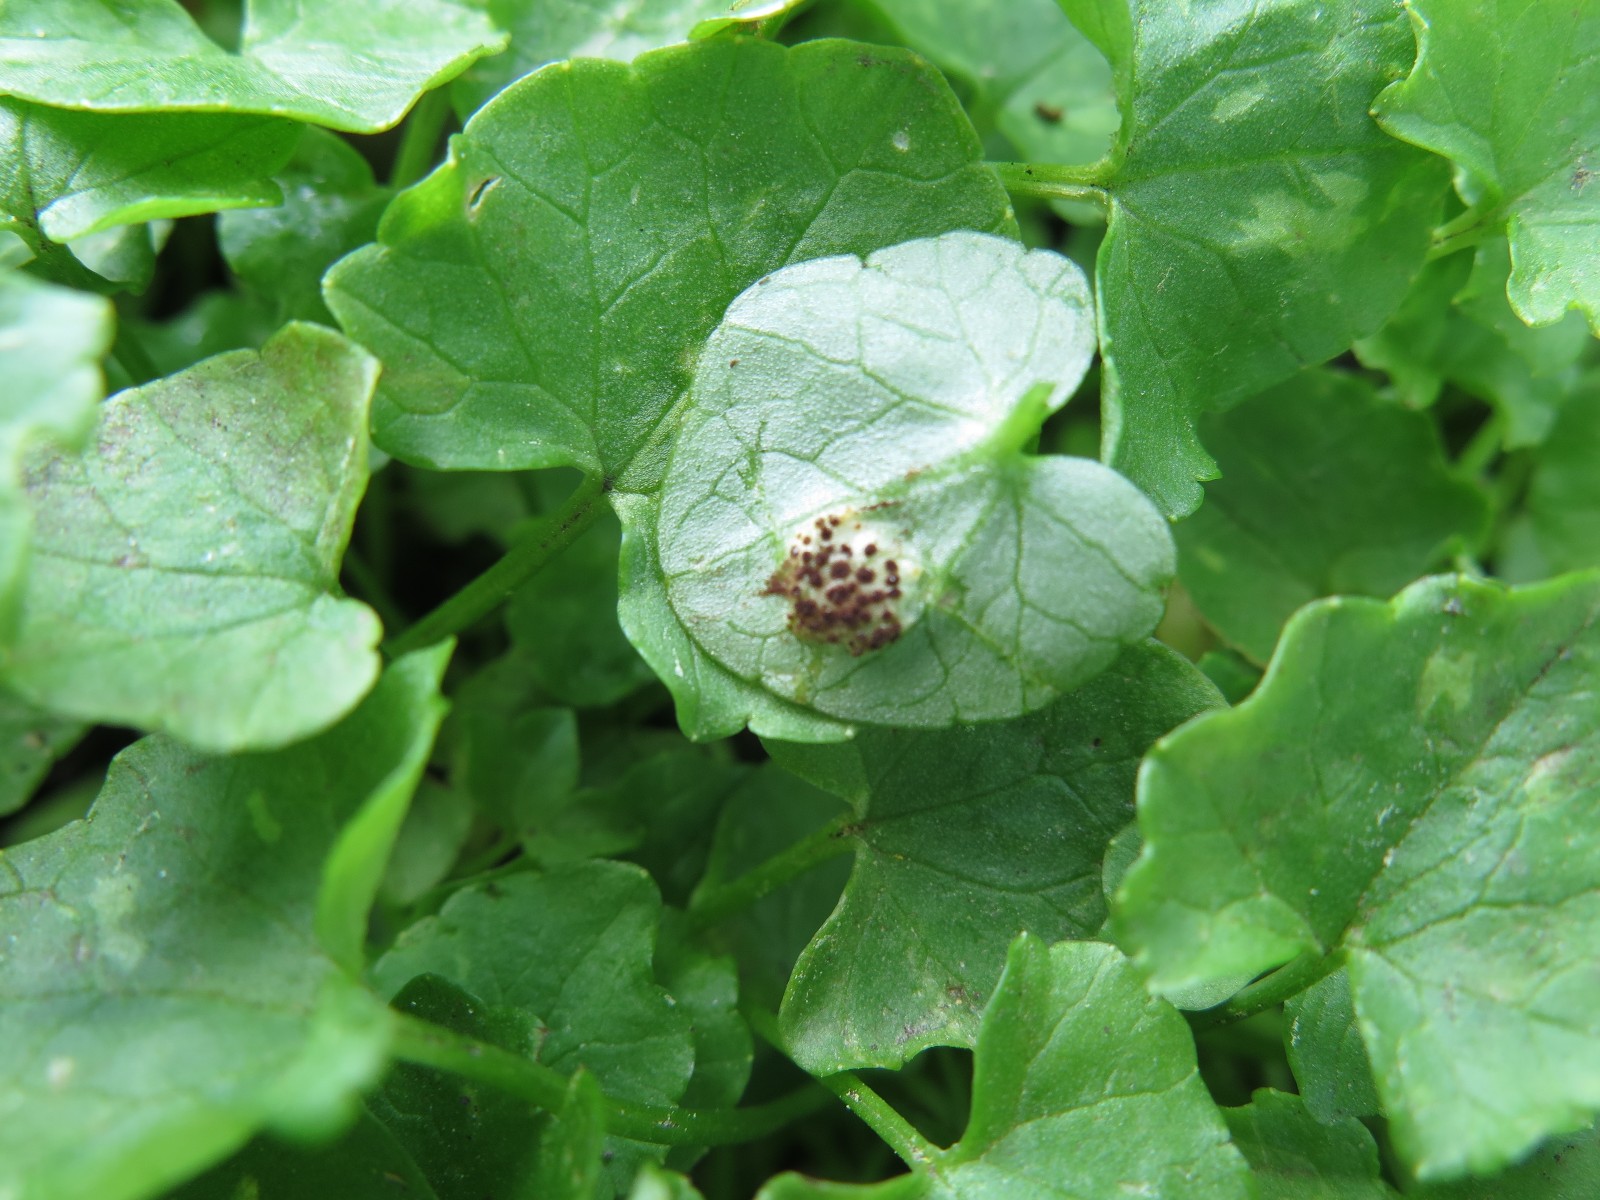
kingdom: Fungi
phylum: Basidiomycota
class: Pucciniomycetes
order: Pucciniales
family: Pucciniaceae
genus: Uromyces
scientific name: Uromyces ficariae
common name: vorterod-encellerust
